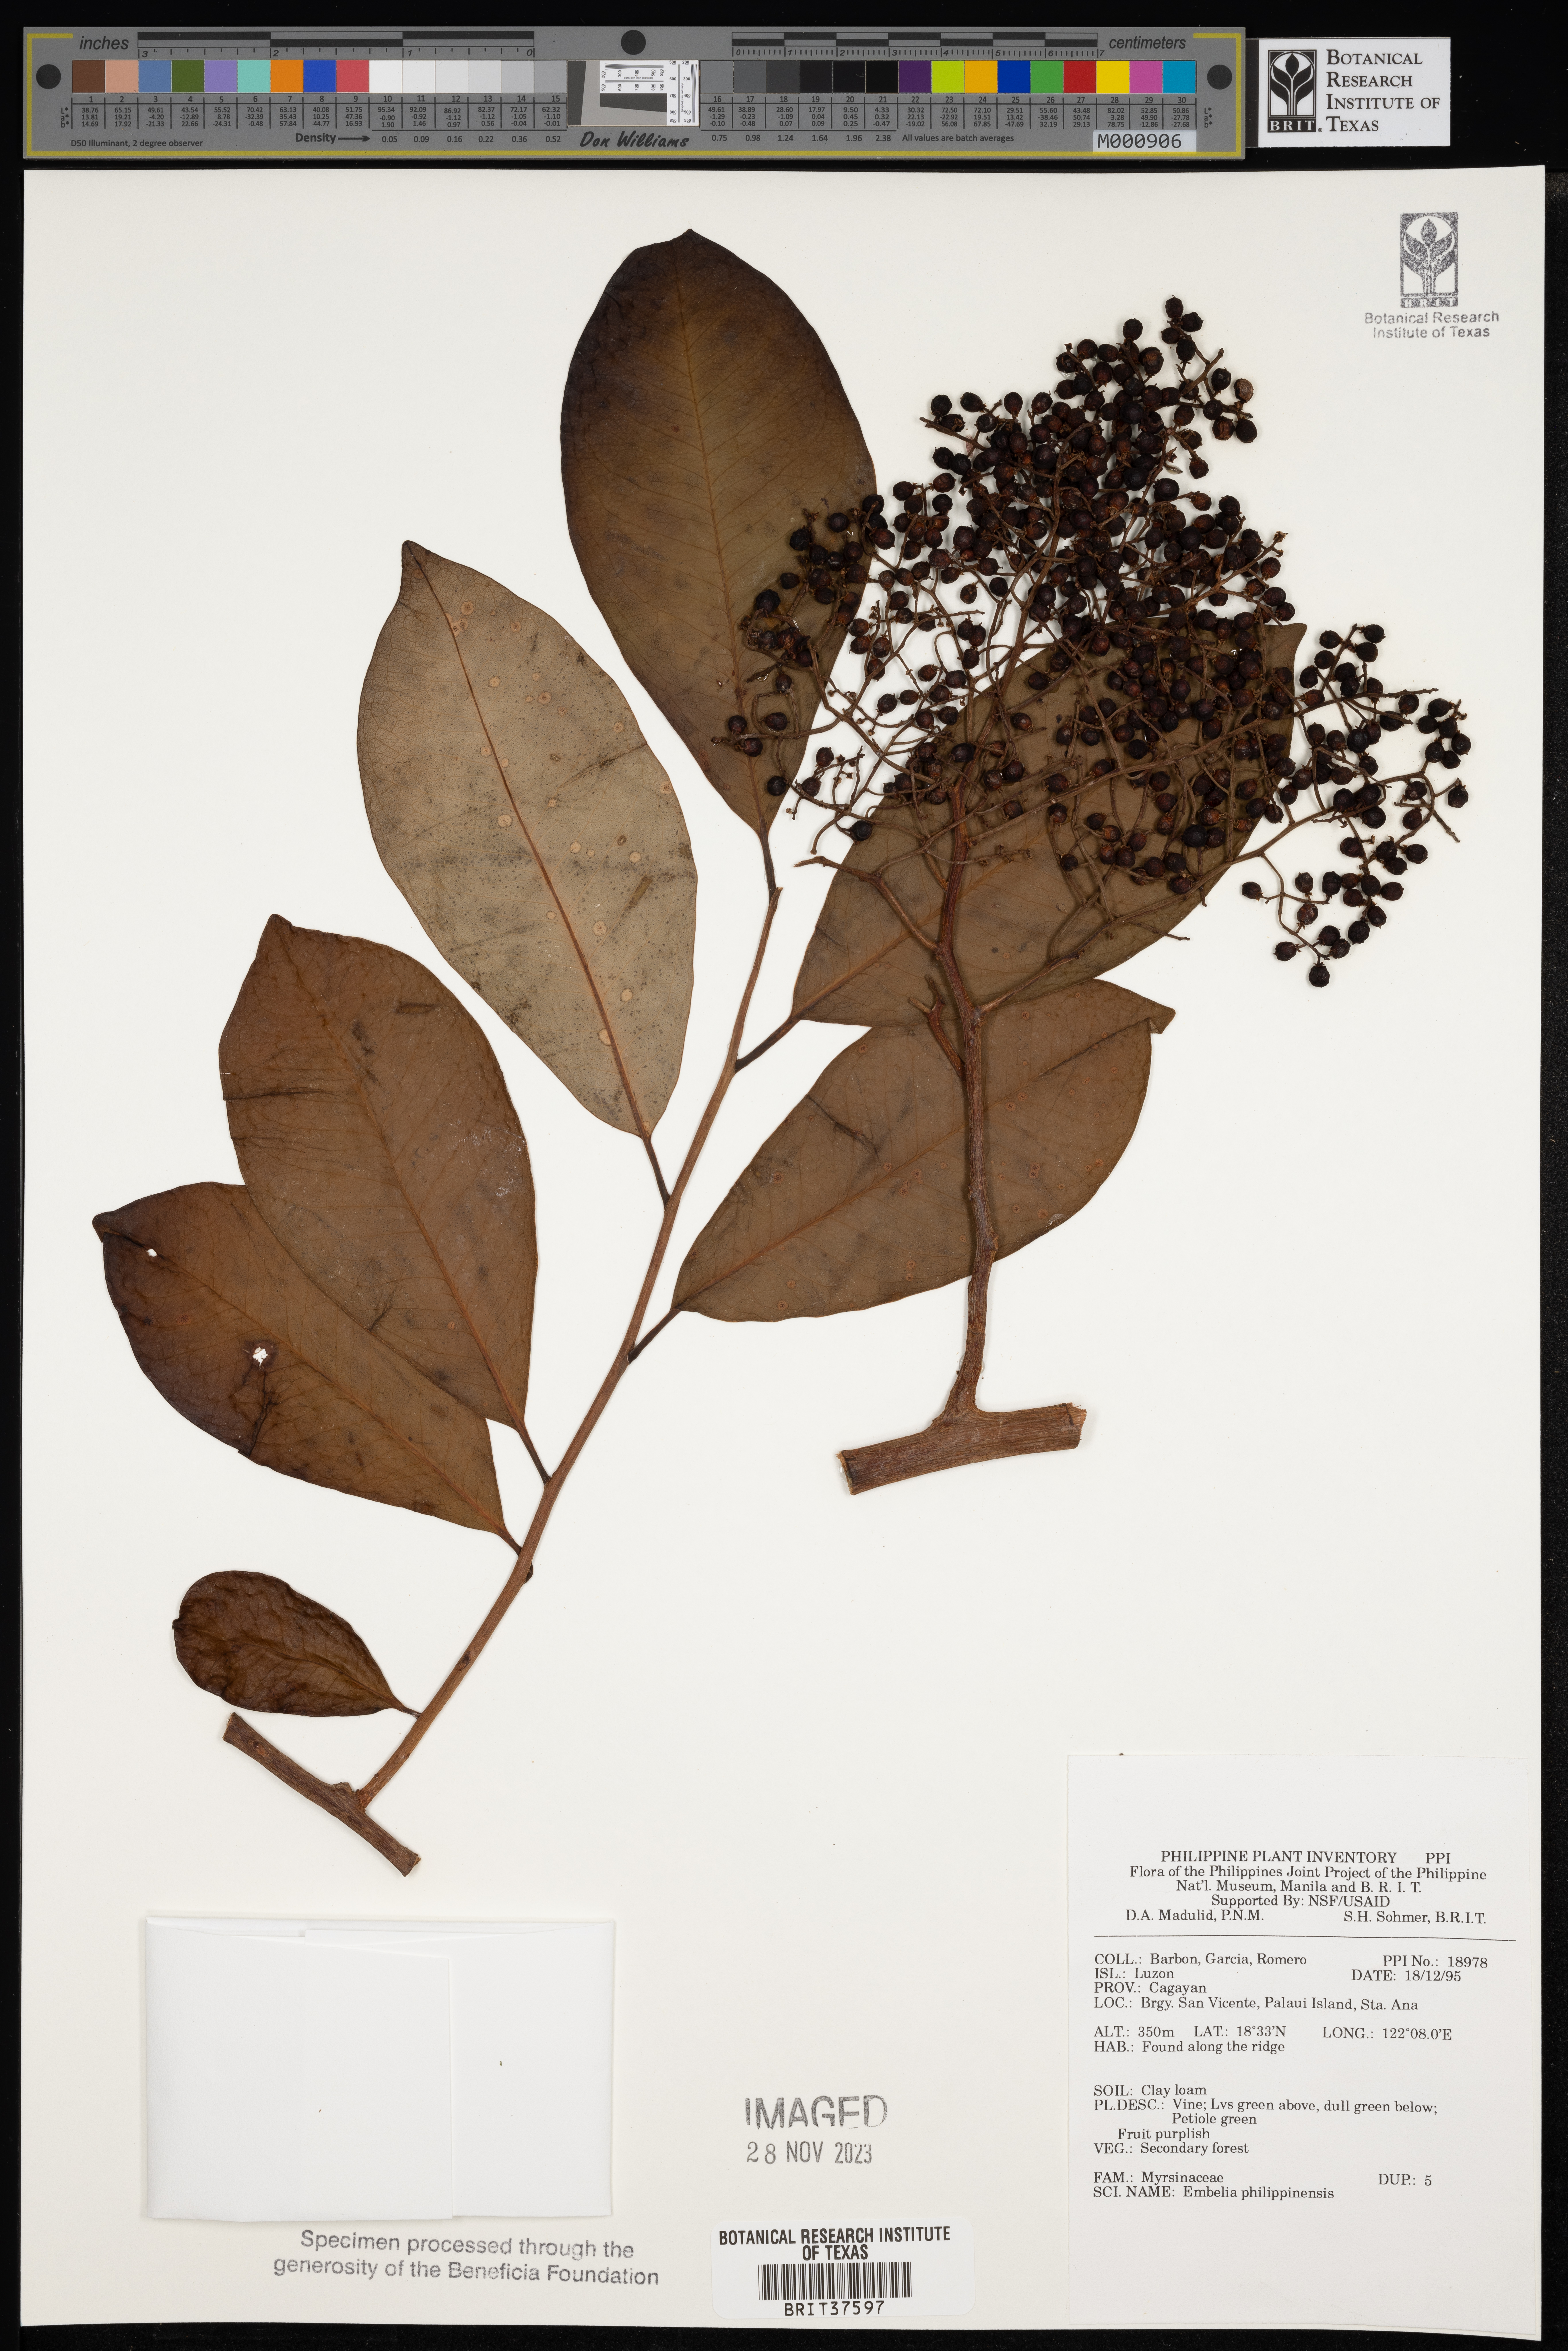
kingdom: Plantae
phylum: Tracheophyta
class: Magnoliopsida
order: Ericales
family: Primulaceae
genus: Embelia
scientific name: Embelia philippinensis
